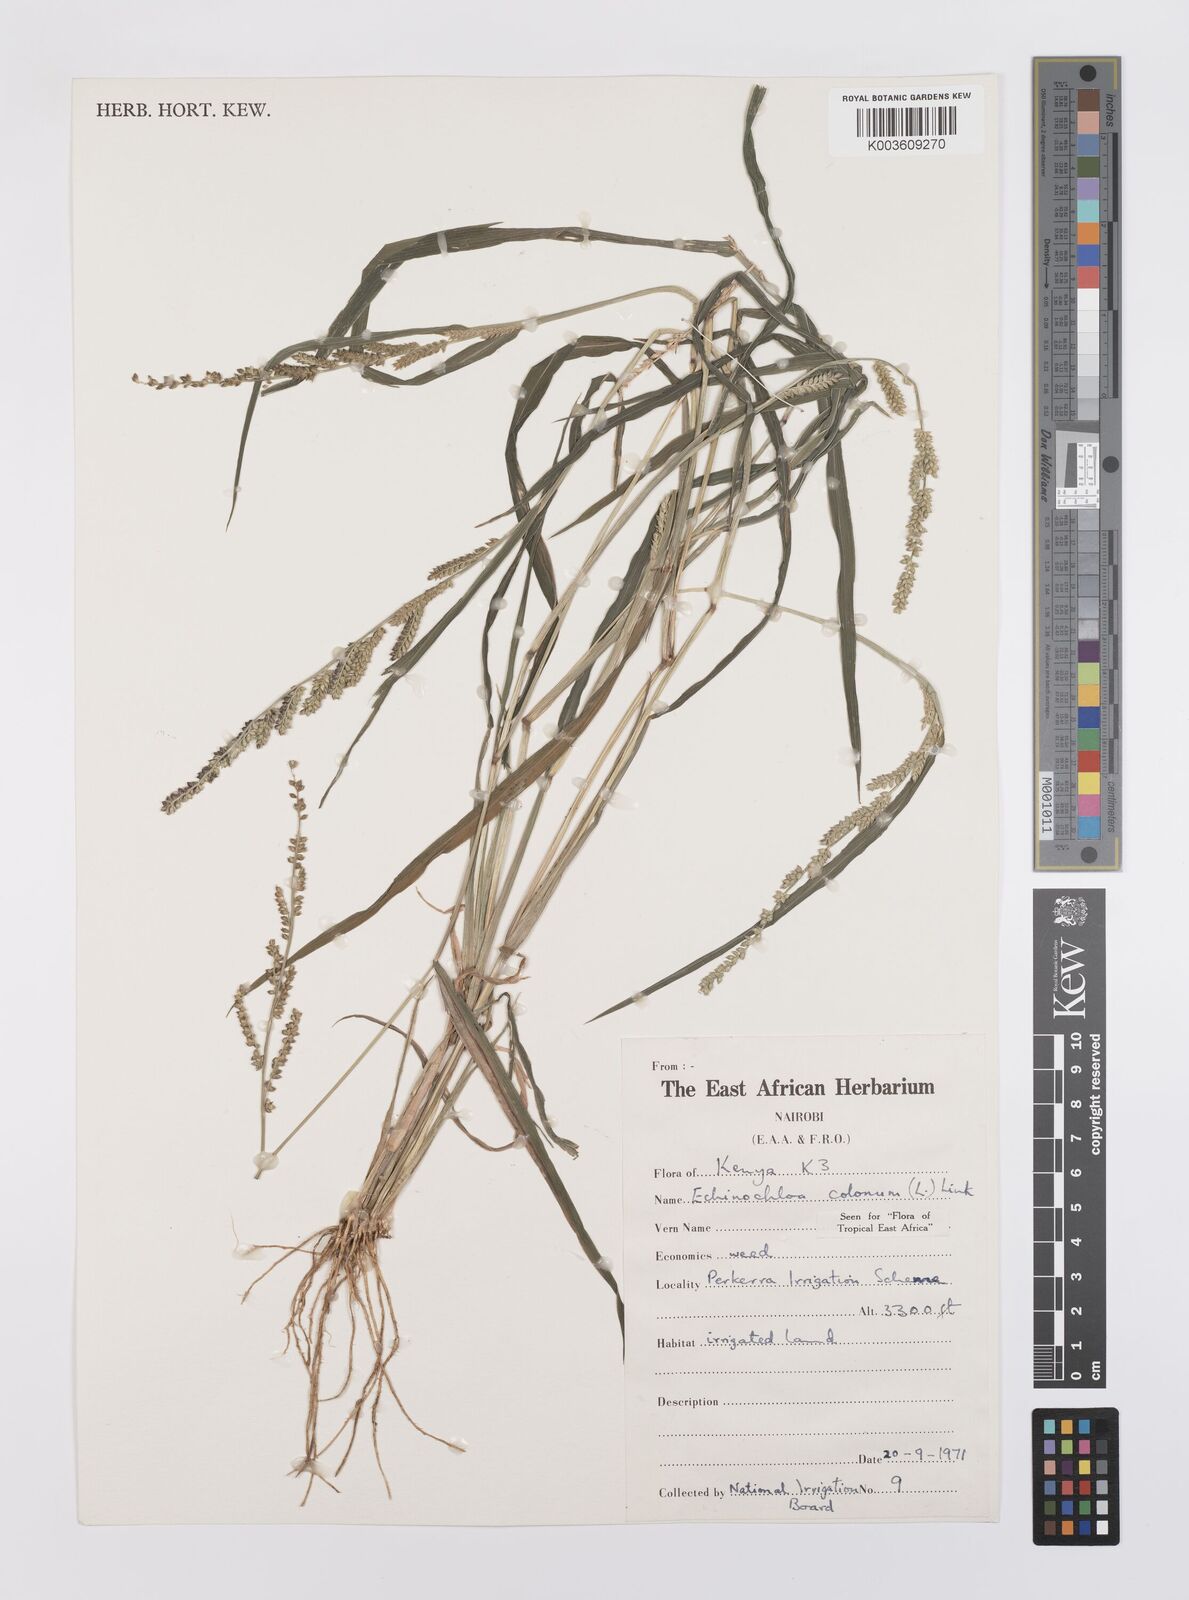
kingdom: Plantae
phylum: Tracheophyta
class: Liliopsida
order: Poales
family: Poaceae
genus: Echinochloa
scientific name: Echinochloa colonum
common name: Jungle rice
